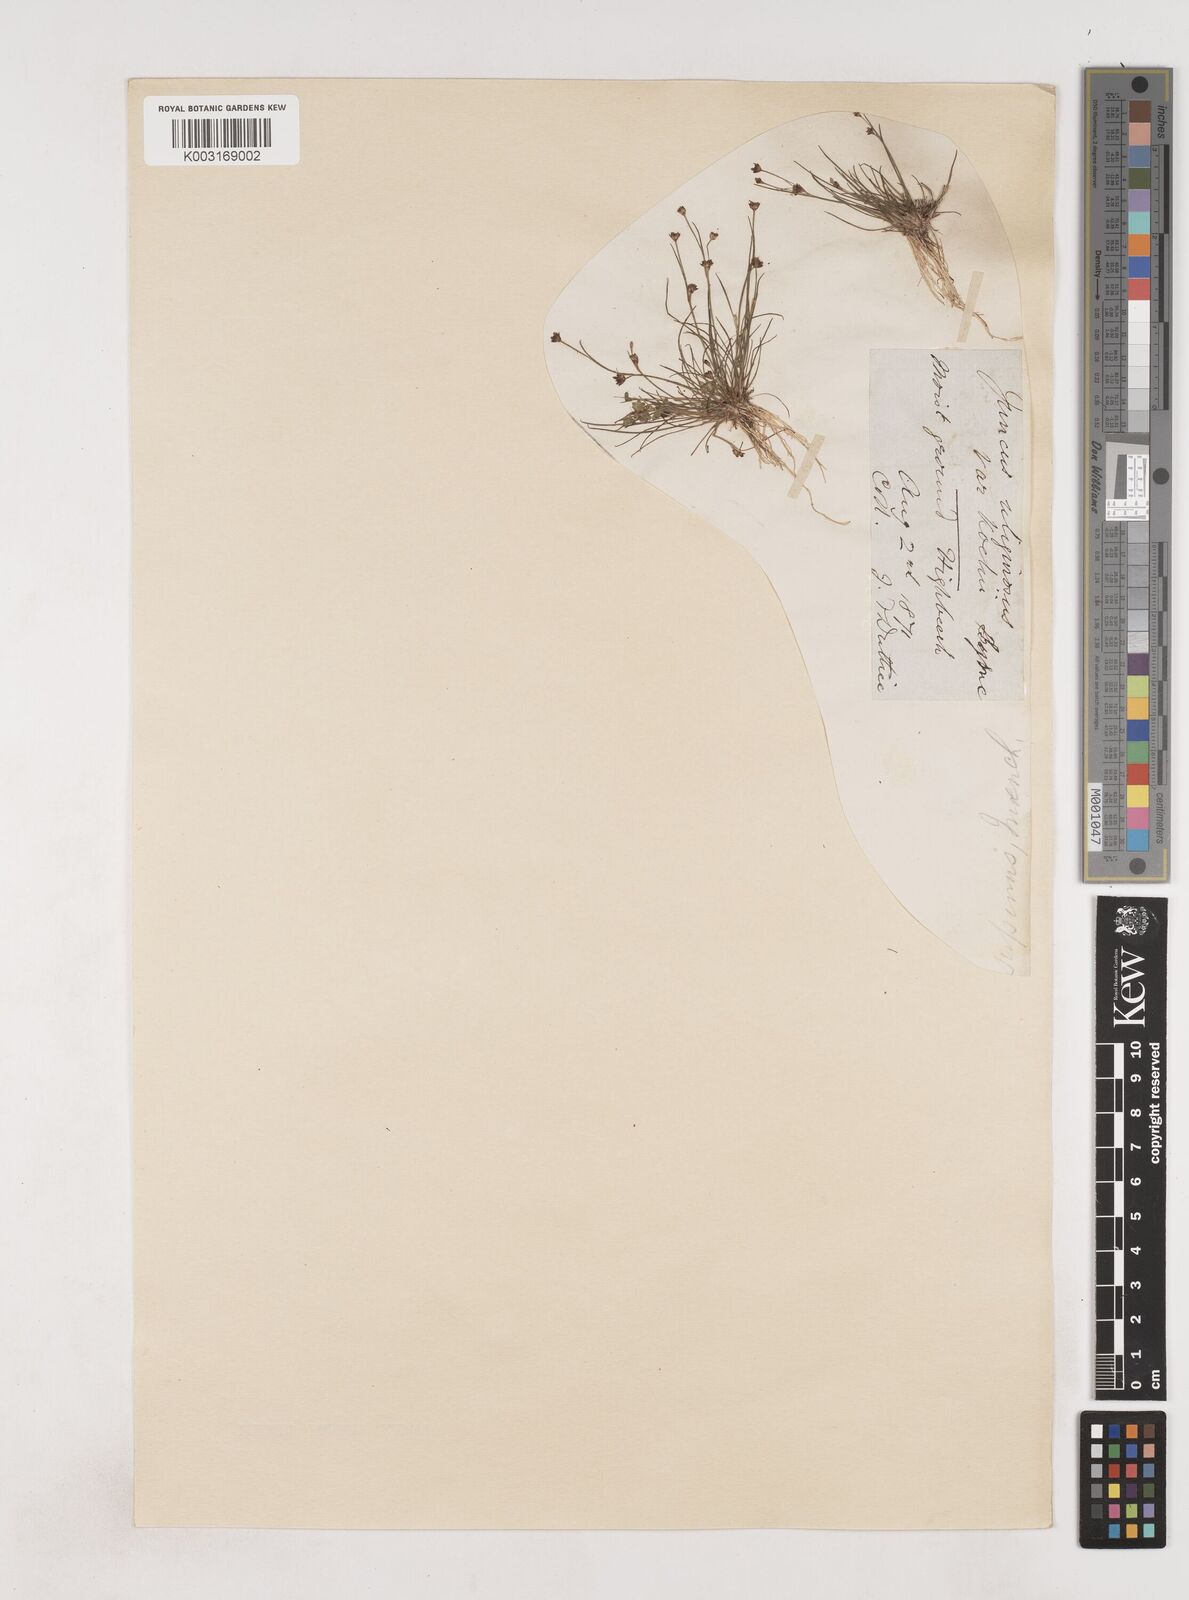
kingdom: Plantae
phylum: Tracheophyta
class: Liliopsida
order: Poales
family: Juncaceae
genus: Juncus
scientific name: Juncus bulbosus
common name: Bulbous rush
